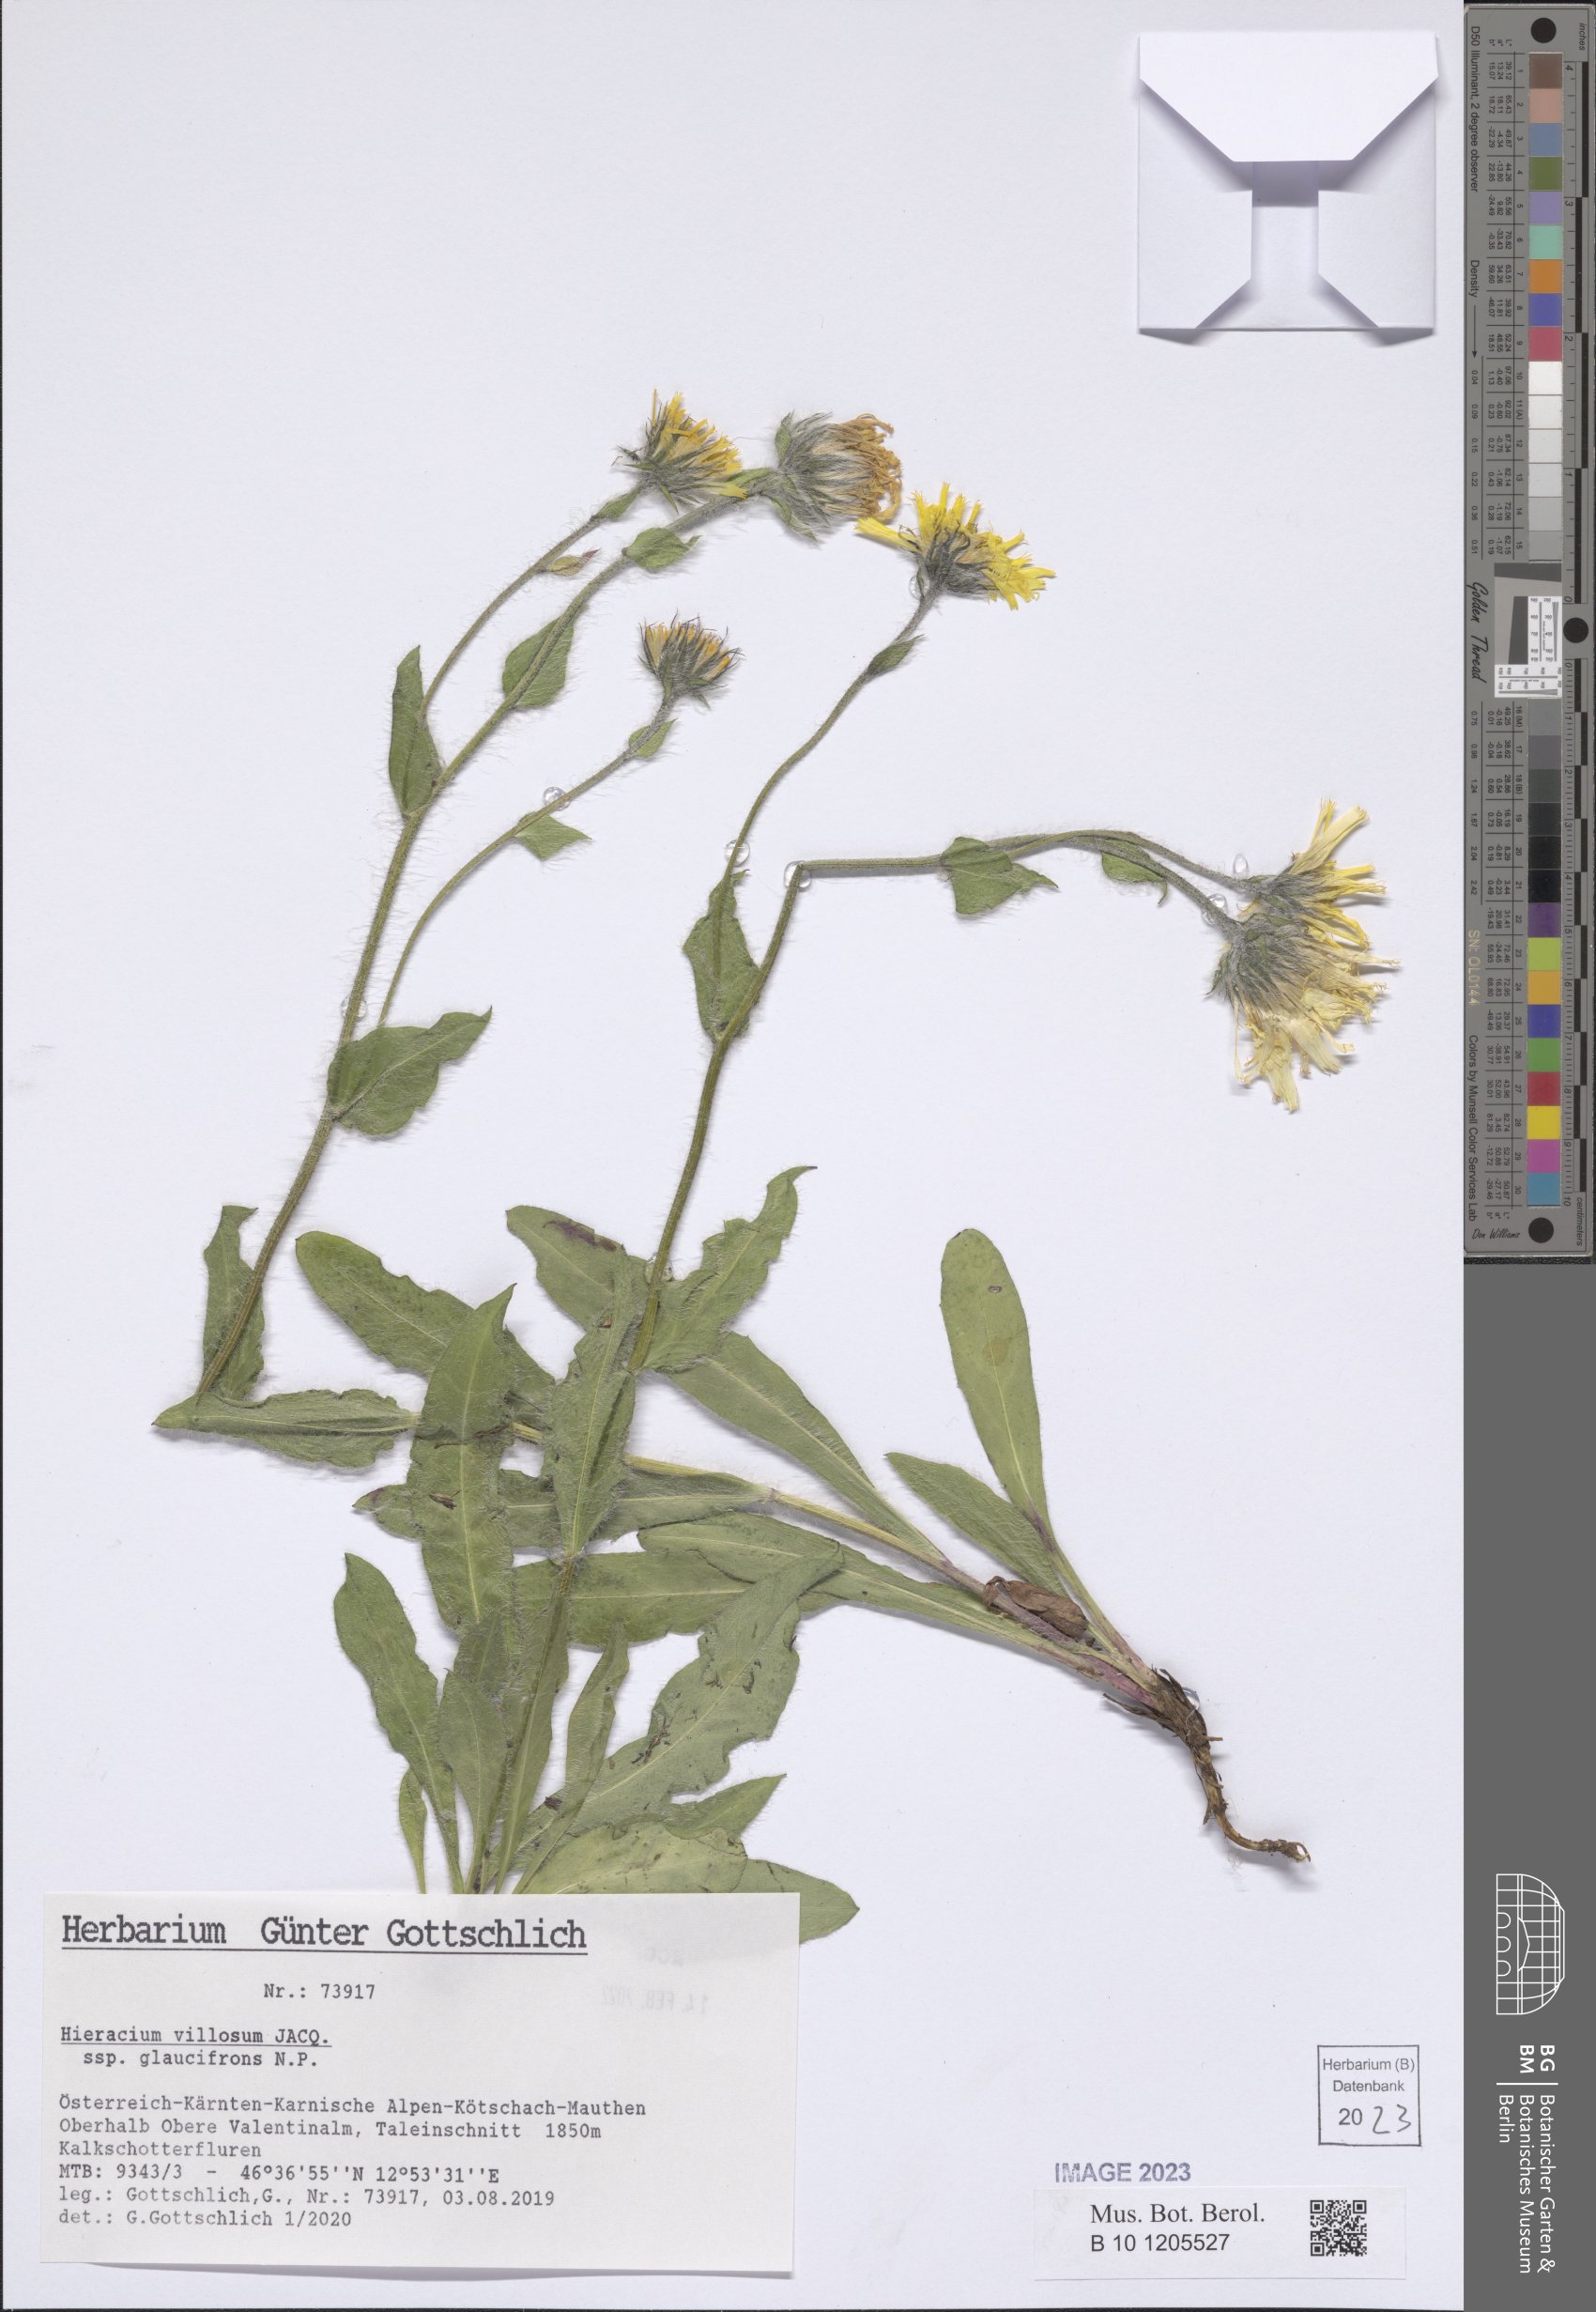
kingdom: Plantae
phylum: Tracheophyta
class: Magnoliopsida
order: Asterales
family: Asteraceae
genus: Hieracium
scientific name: Hieracium villosum
